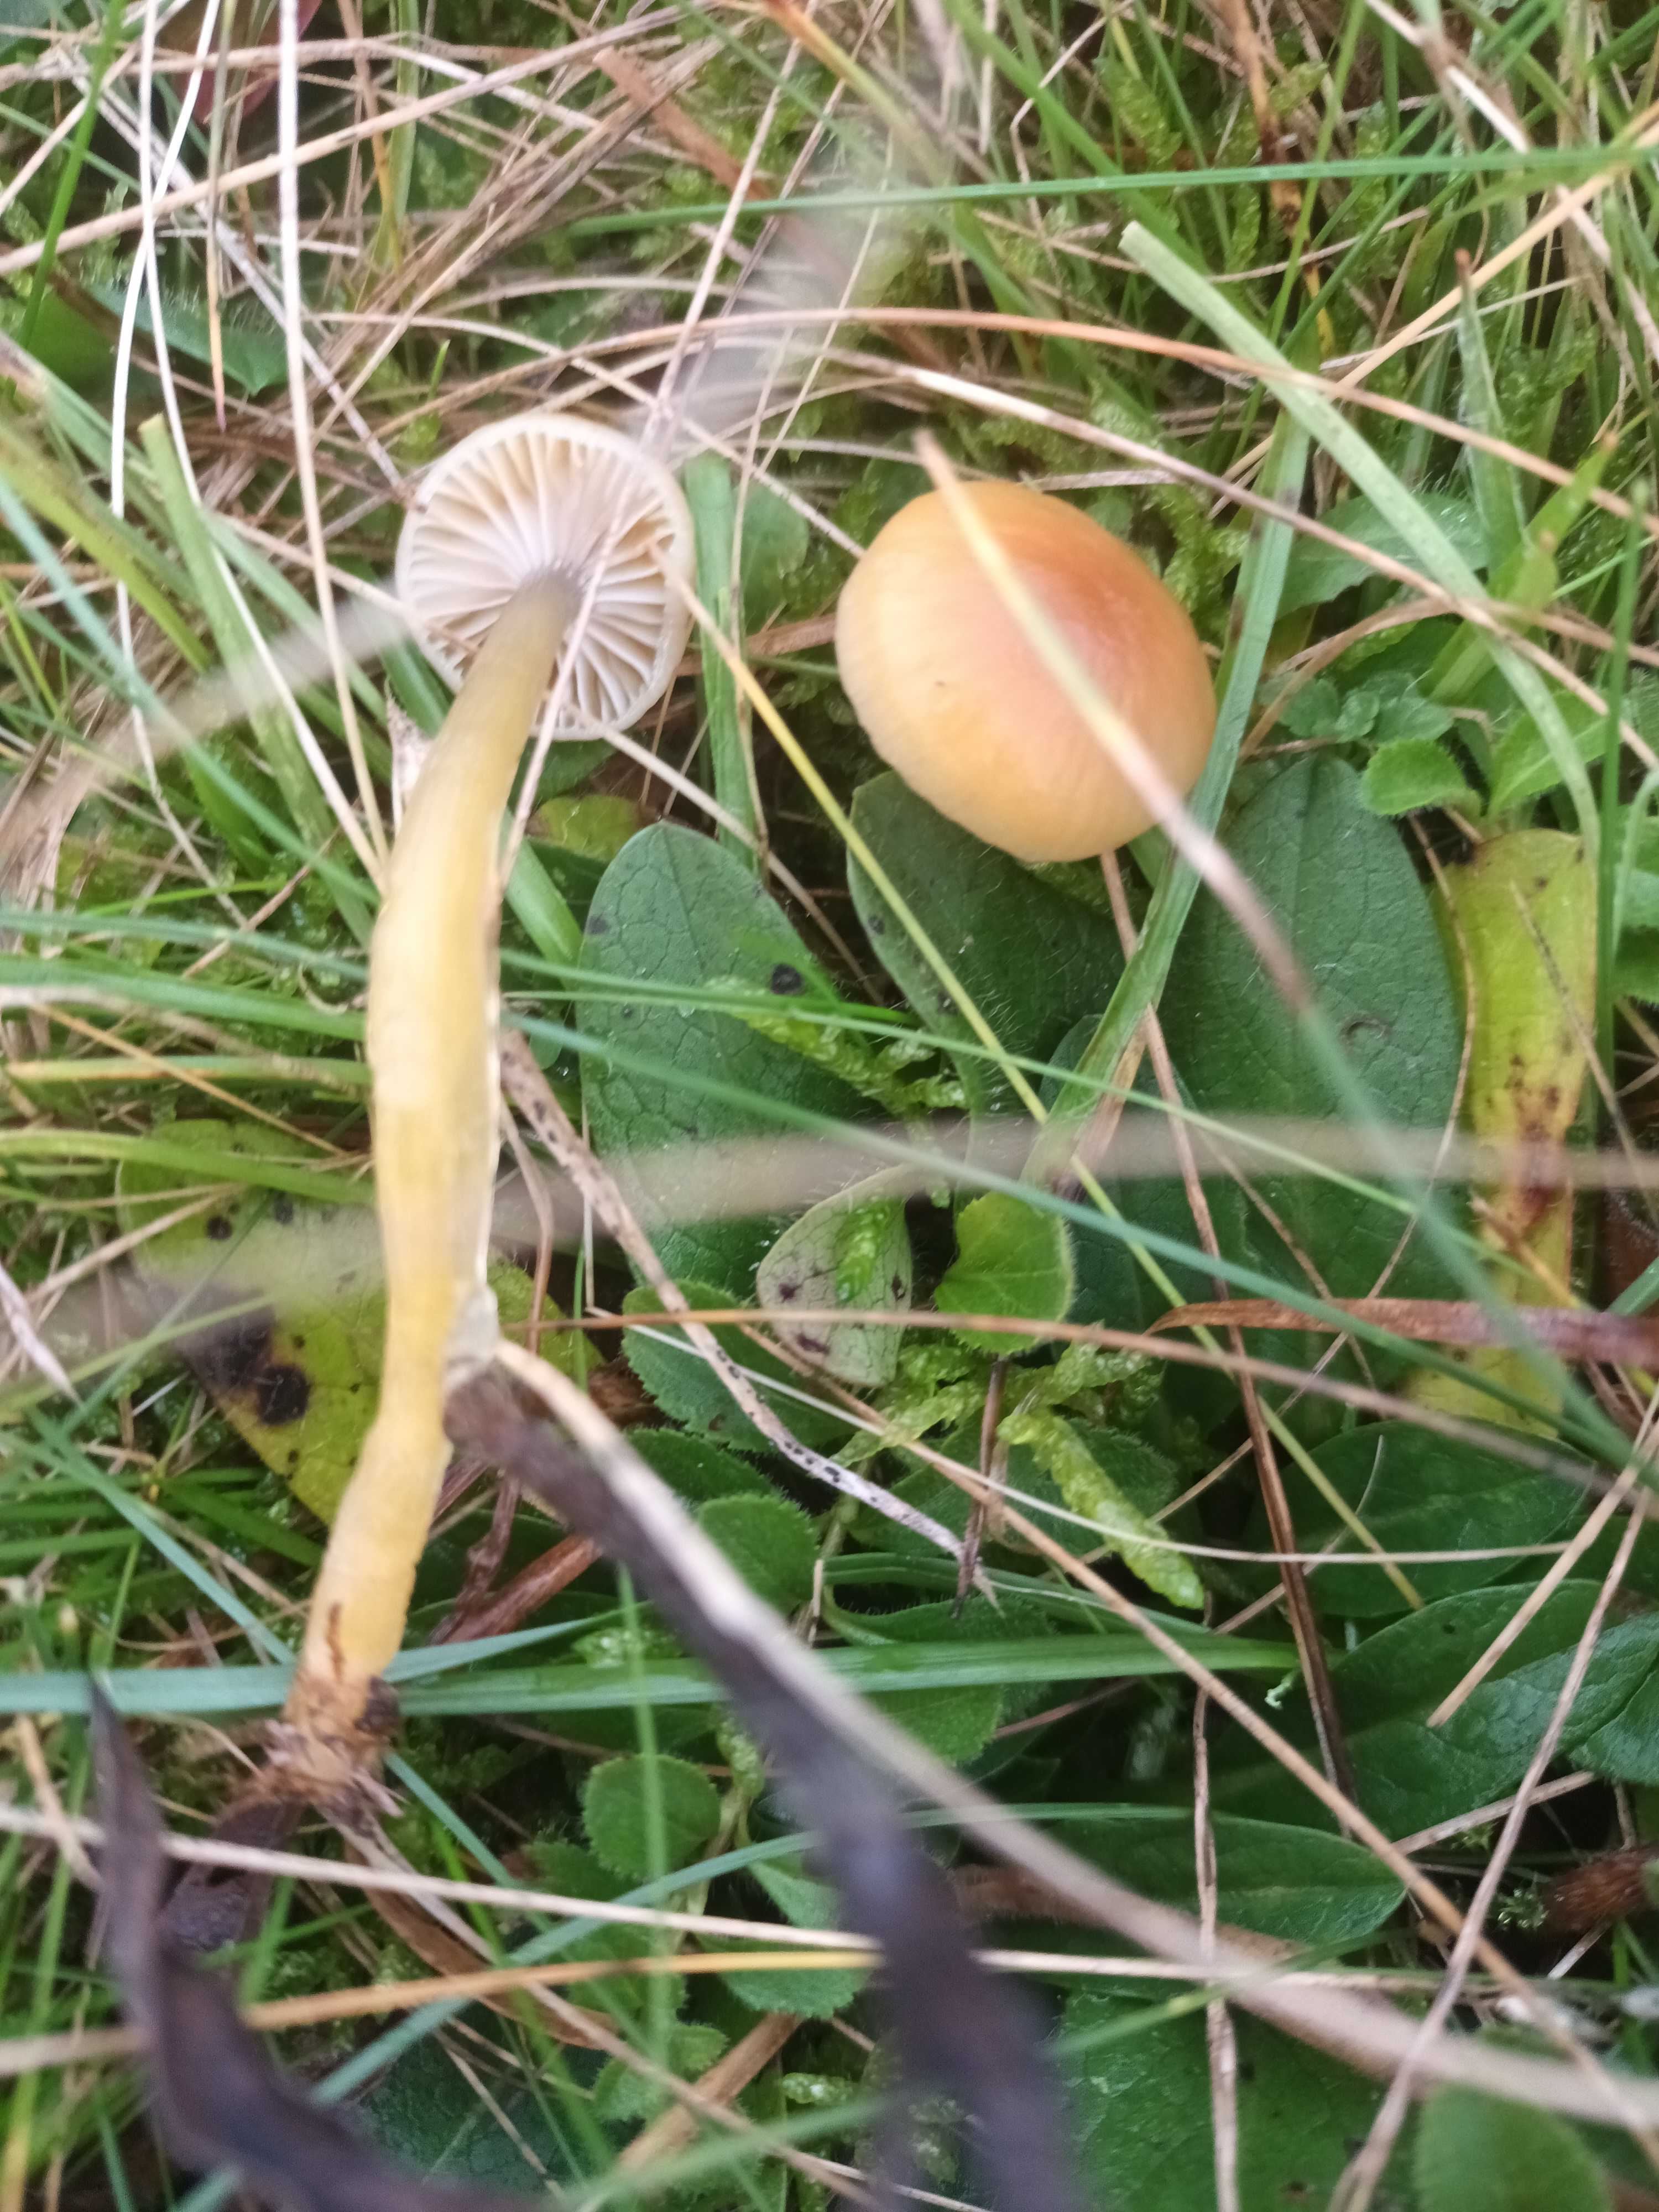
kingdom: Fungi
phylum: Basidiomycota
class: Agaricomycetes
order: Agaricales
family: Hygrophoraceae
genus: Gliophorus
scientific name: Gliophorus laetus
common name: brusk-vokshat
